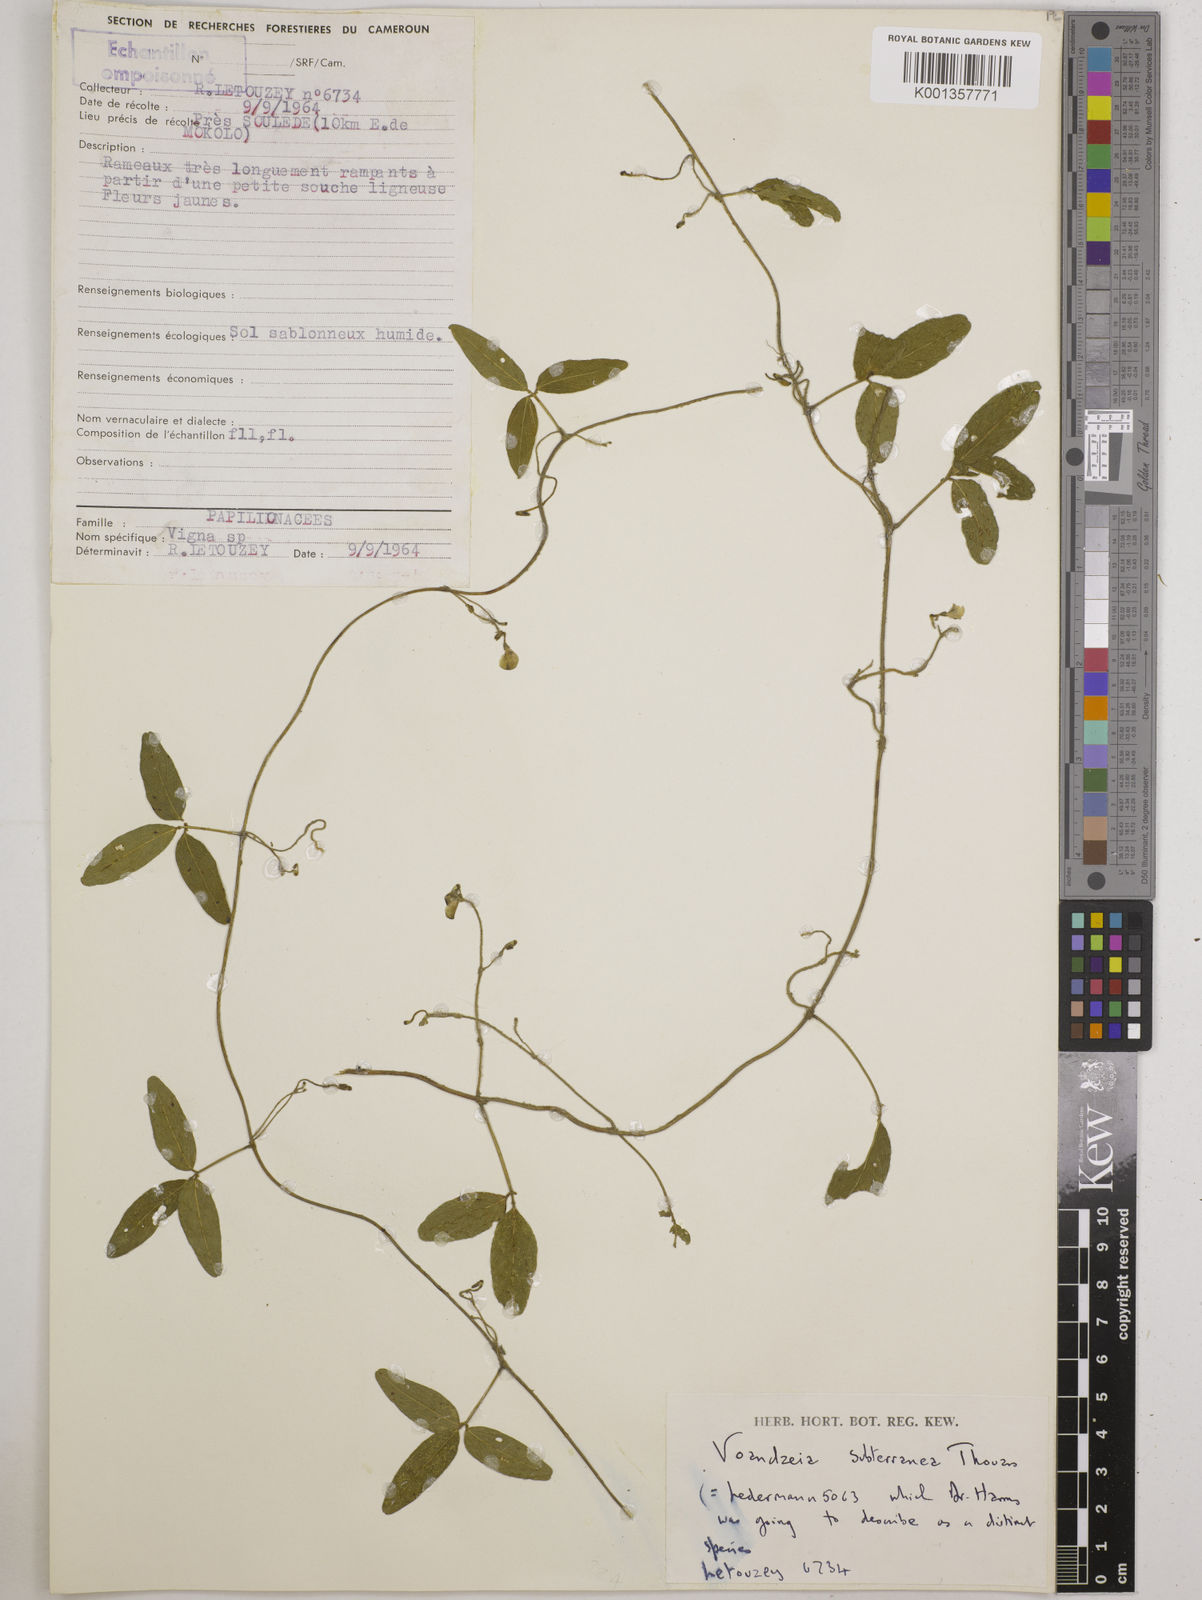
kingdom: Plantae
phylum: Tracheophyta
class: Magnoliopsida
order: Fabales
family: Fabaceae
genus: Vigna
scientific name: Vigna subterranea
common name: Bambara groundnut
